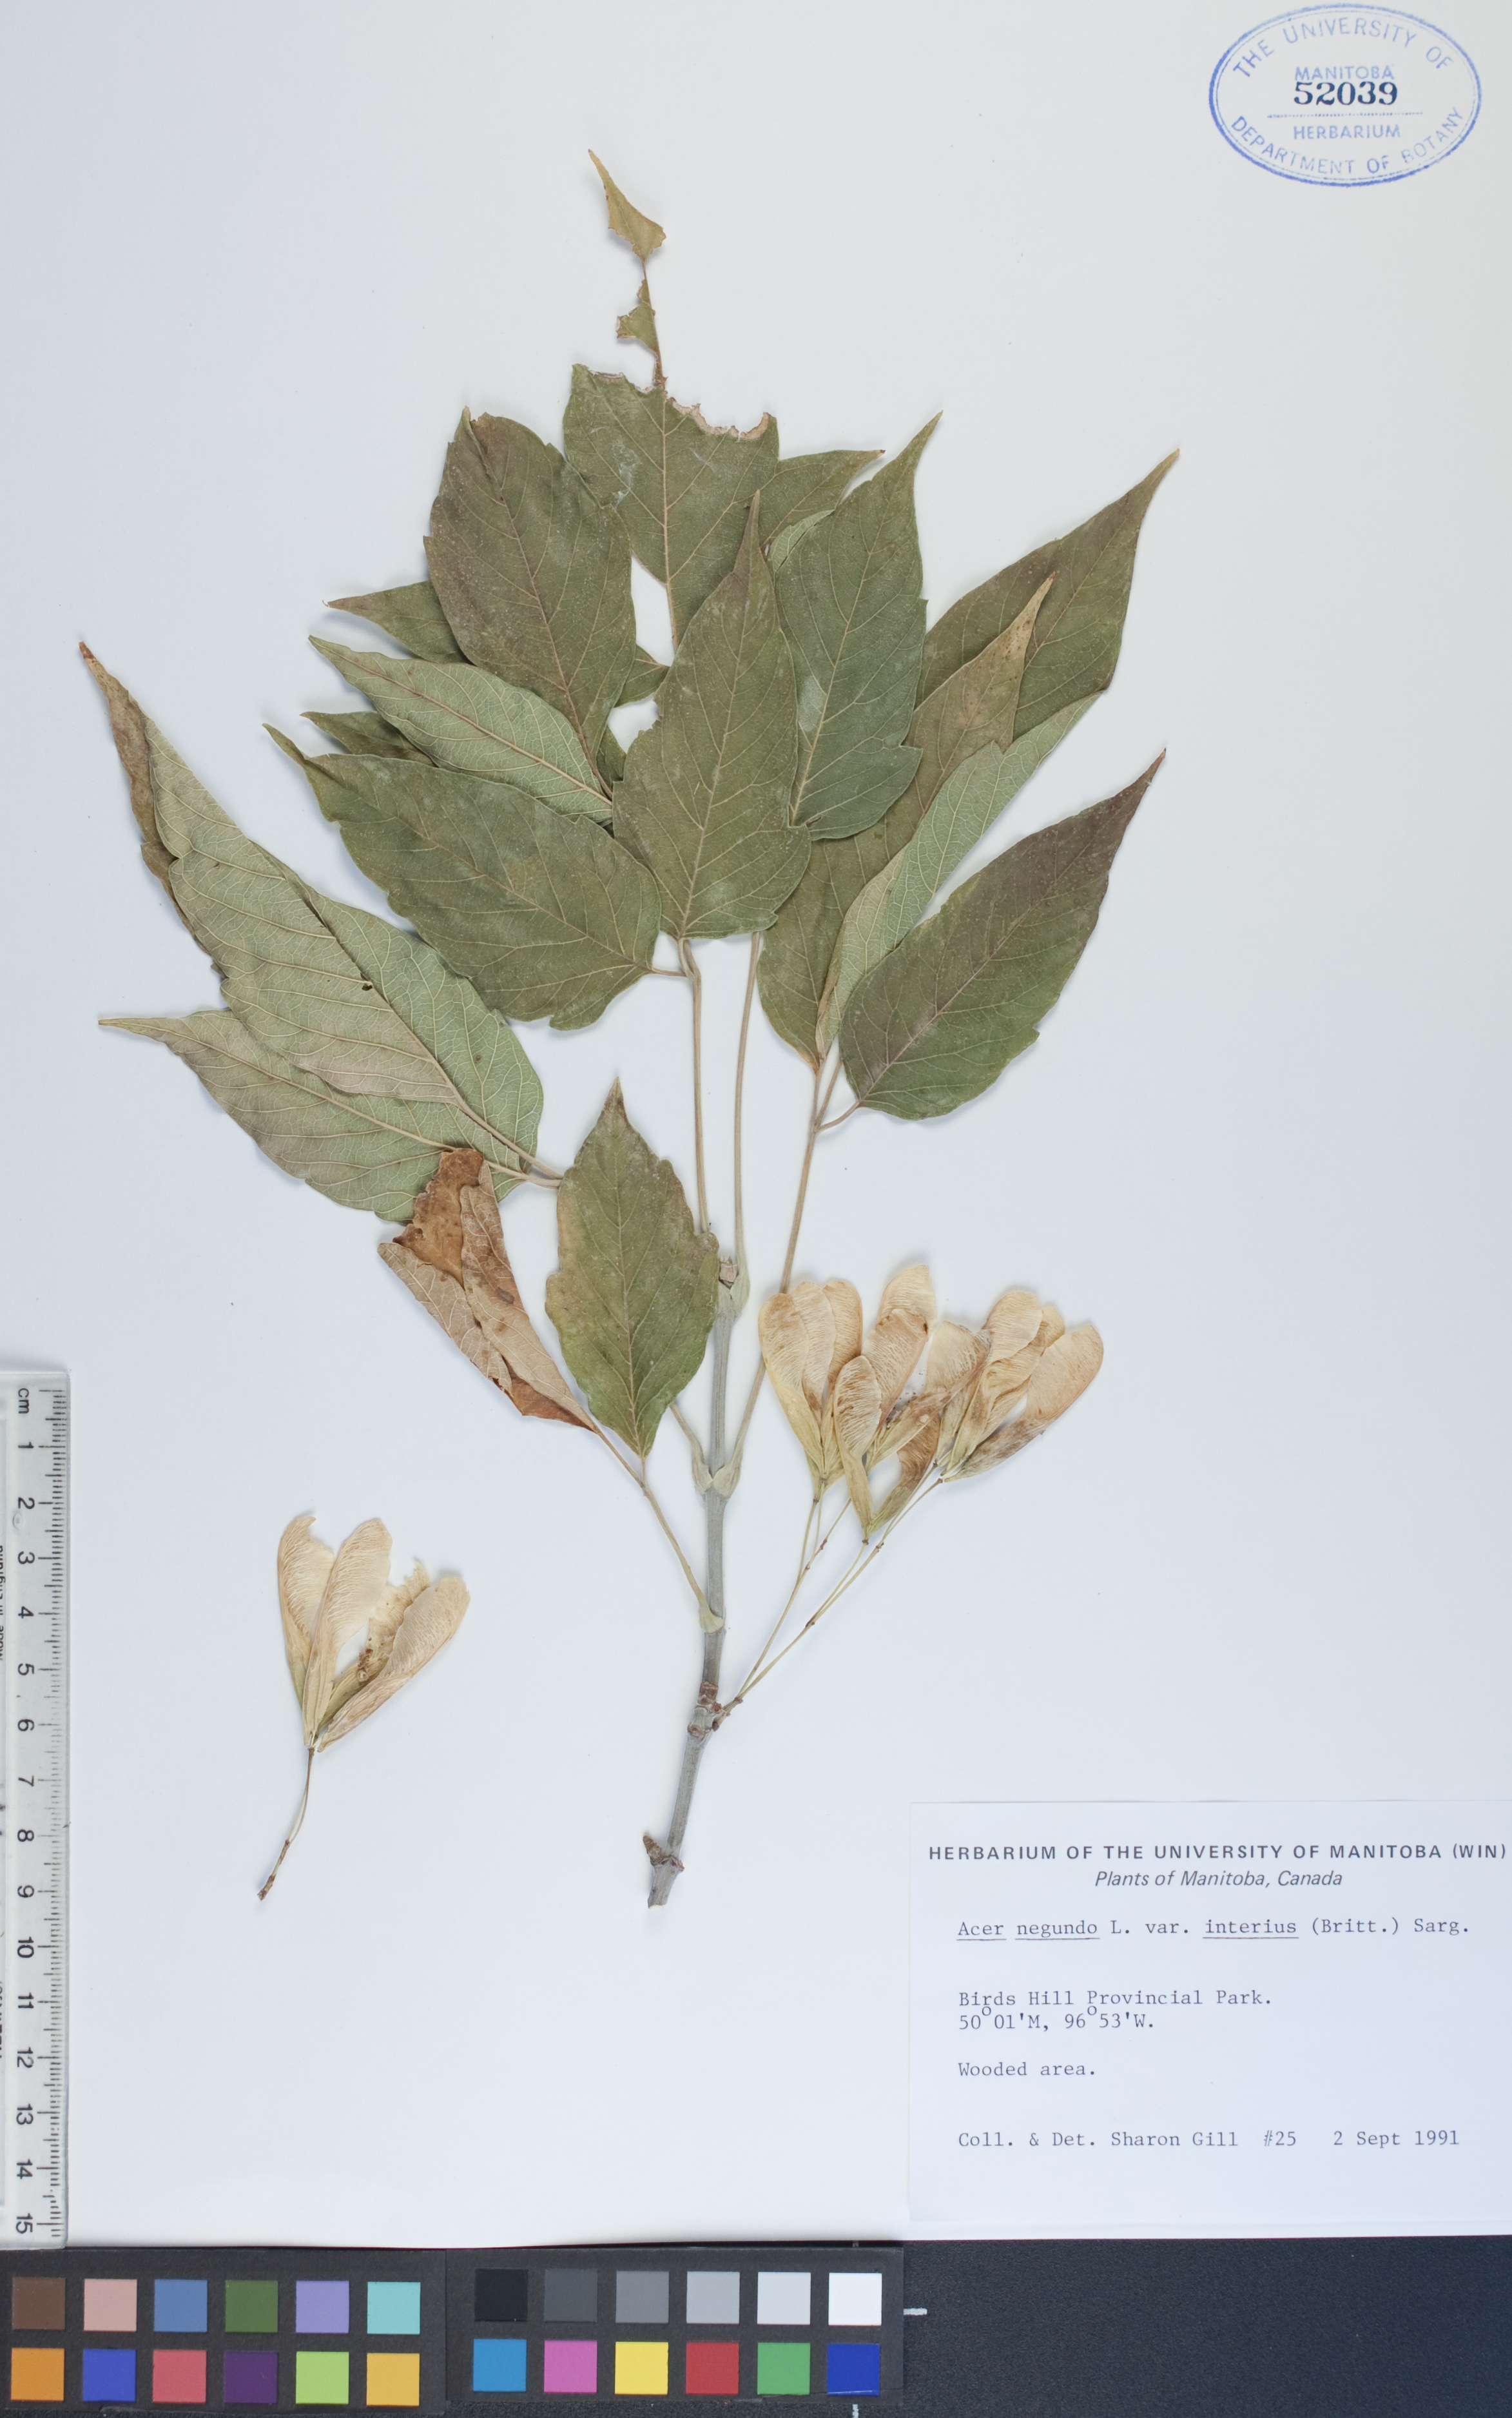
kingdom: Plantae
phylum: Tracheophyta
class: Magnoliopsida
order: Sapindales
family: Sapindaceae
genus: Acer
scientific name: Acer negundo
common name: Ashleaf maple
